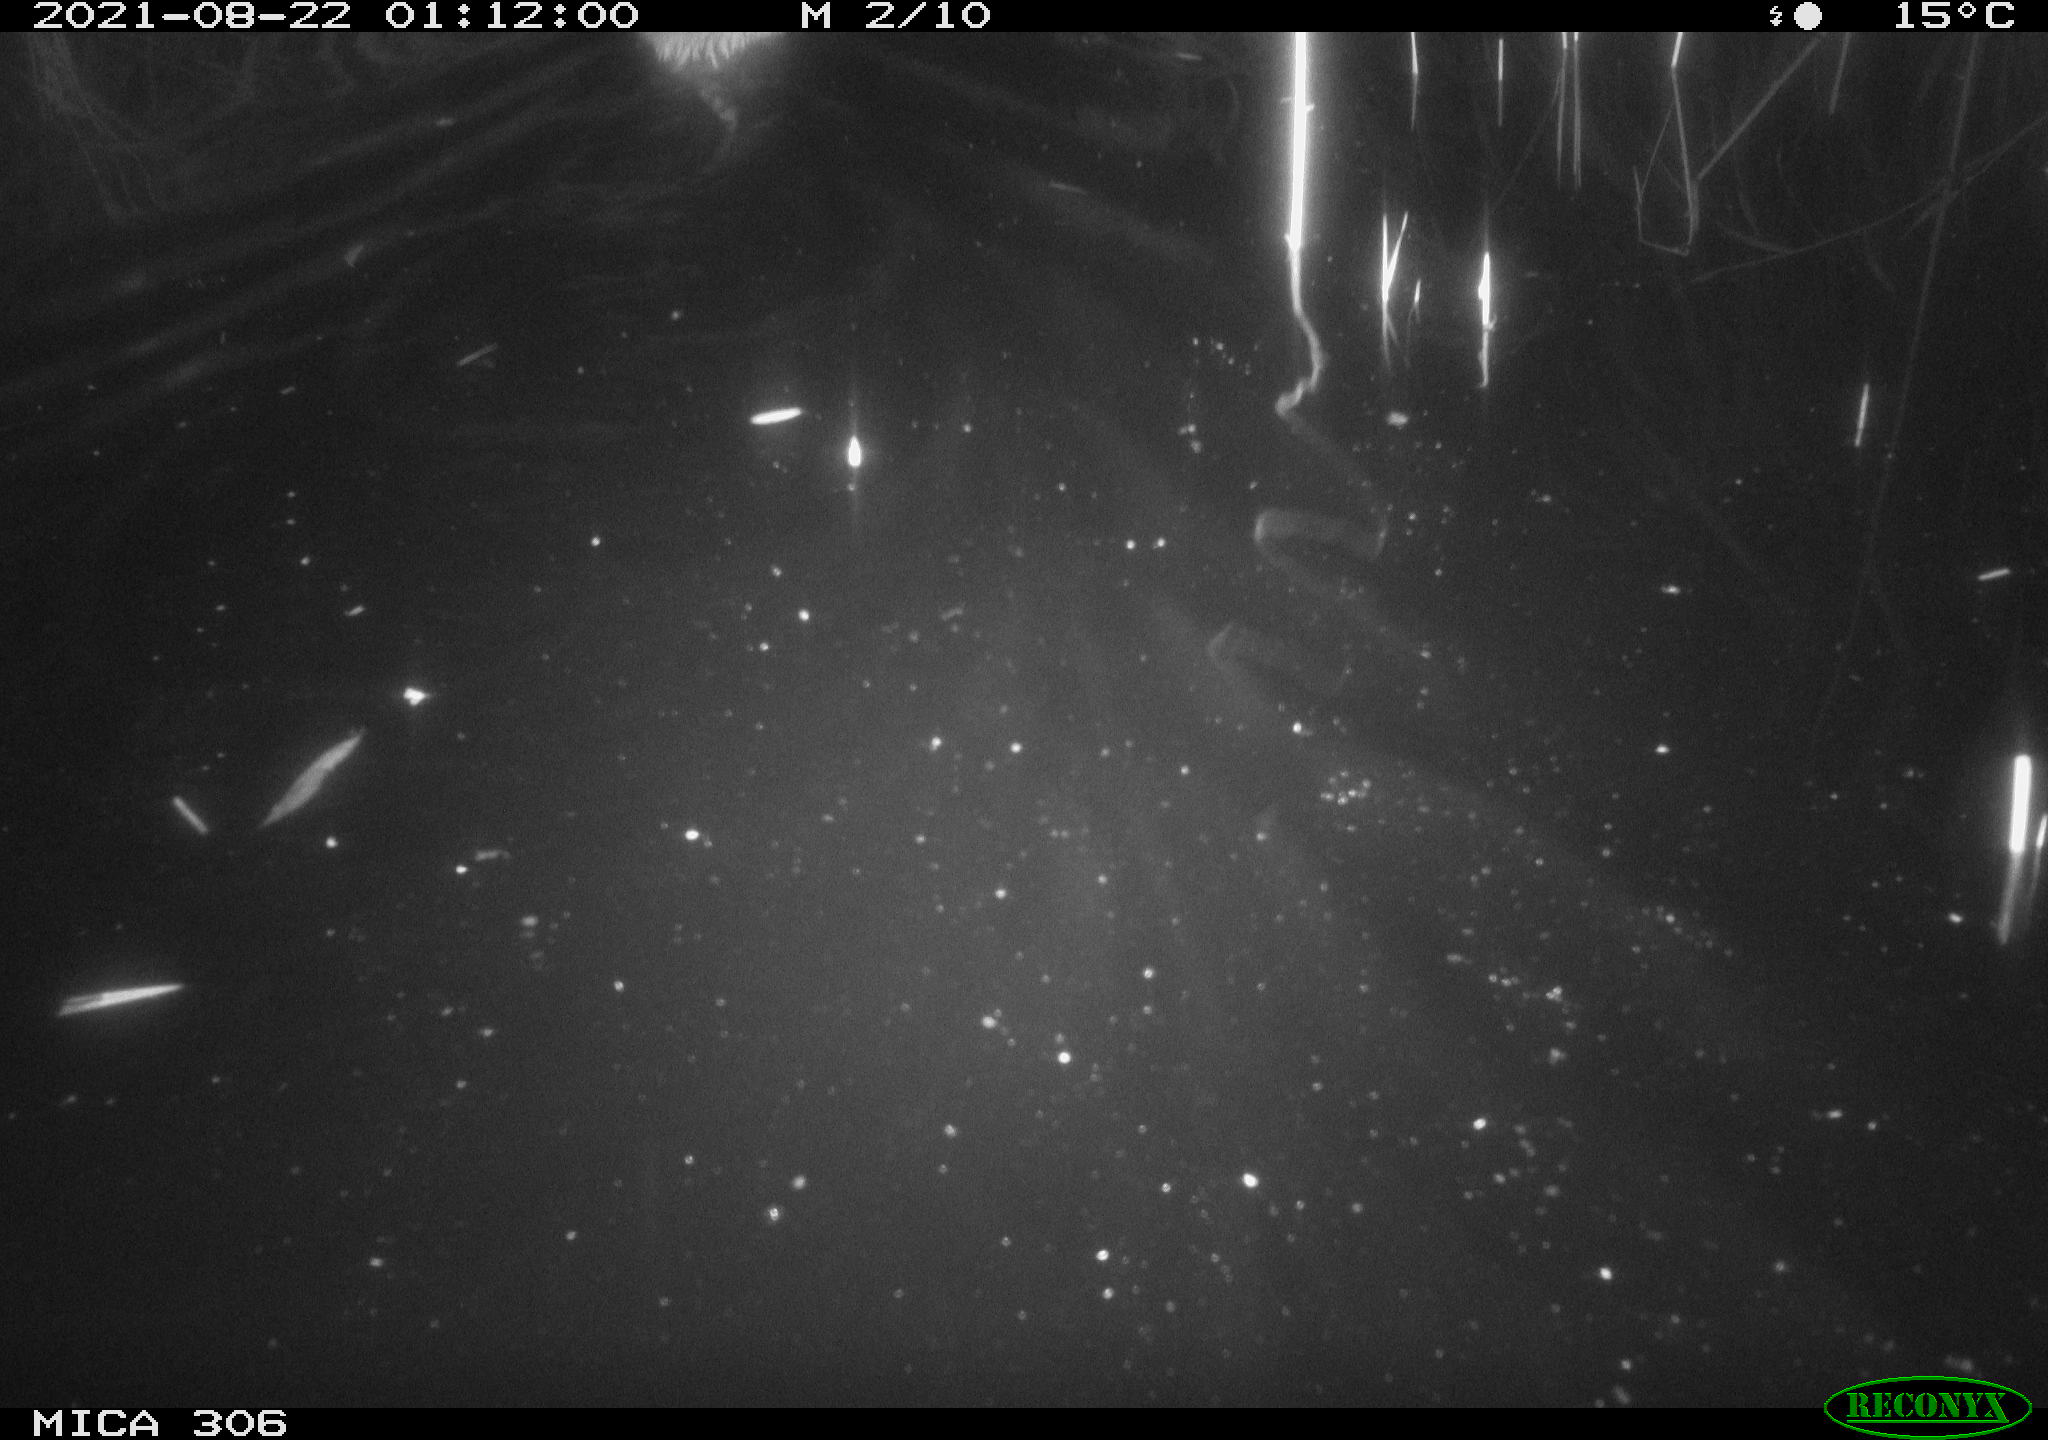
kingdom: Animalia
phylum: Chordata
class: Mammalia
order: Rodentia
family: Cricetidae
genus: Ondatra
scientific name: Ondatra zibethicus
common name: Muskrat
